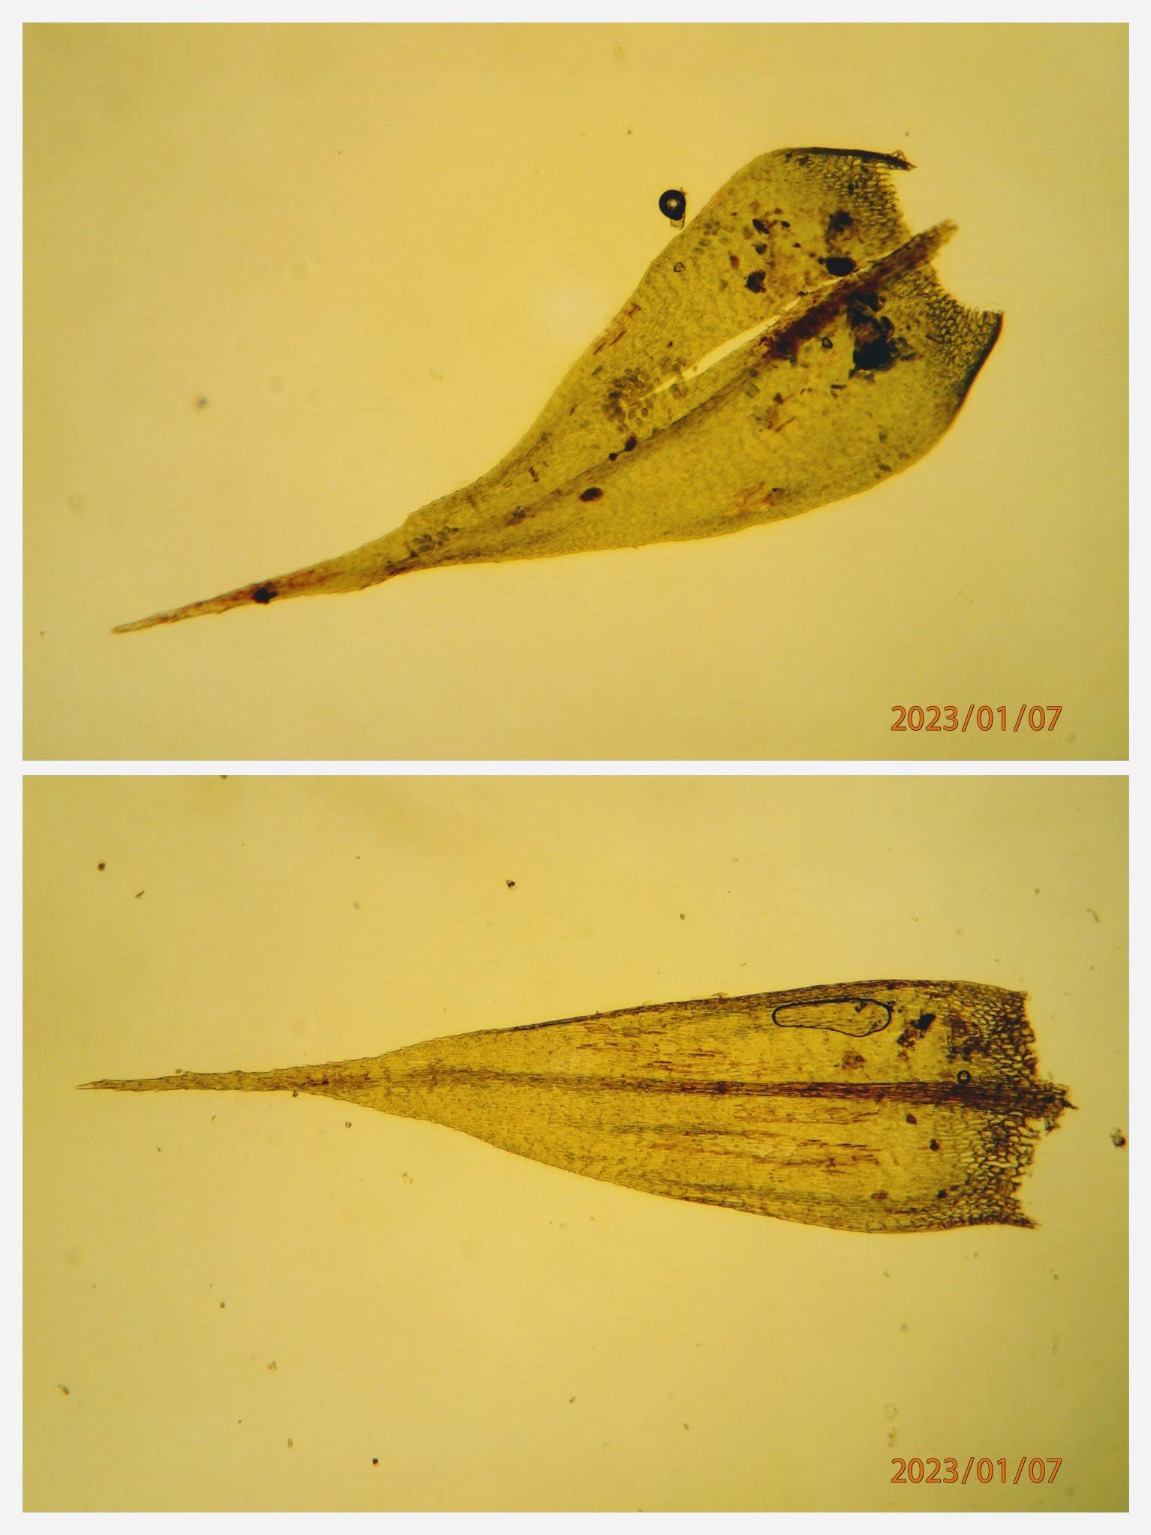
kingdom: Plantae
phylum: Bryophyta
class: Bryopsida
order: Hypnales
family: Brachytheciaceae
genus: Sciuro-hypnum
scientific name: Sciuro-hypnum populeum
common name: Park-kortkapsel
